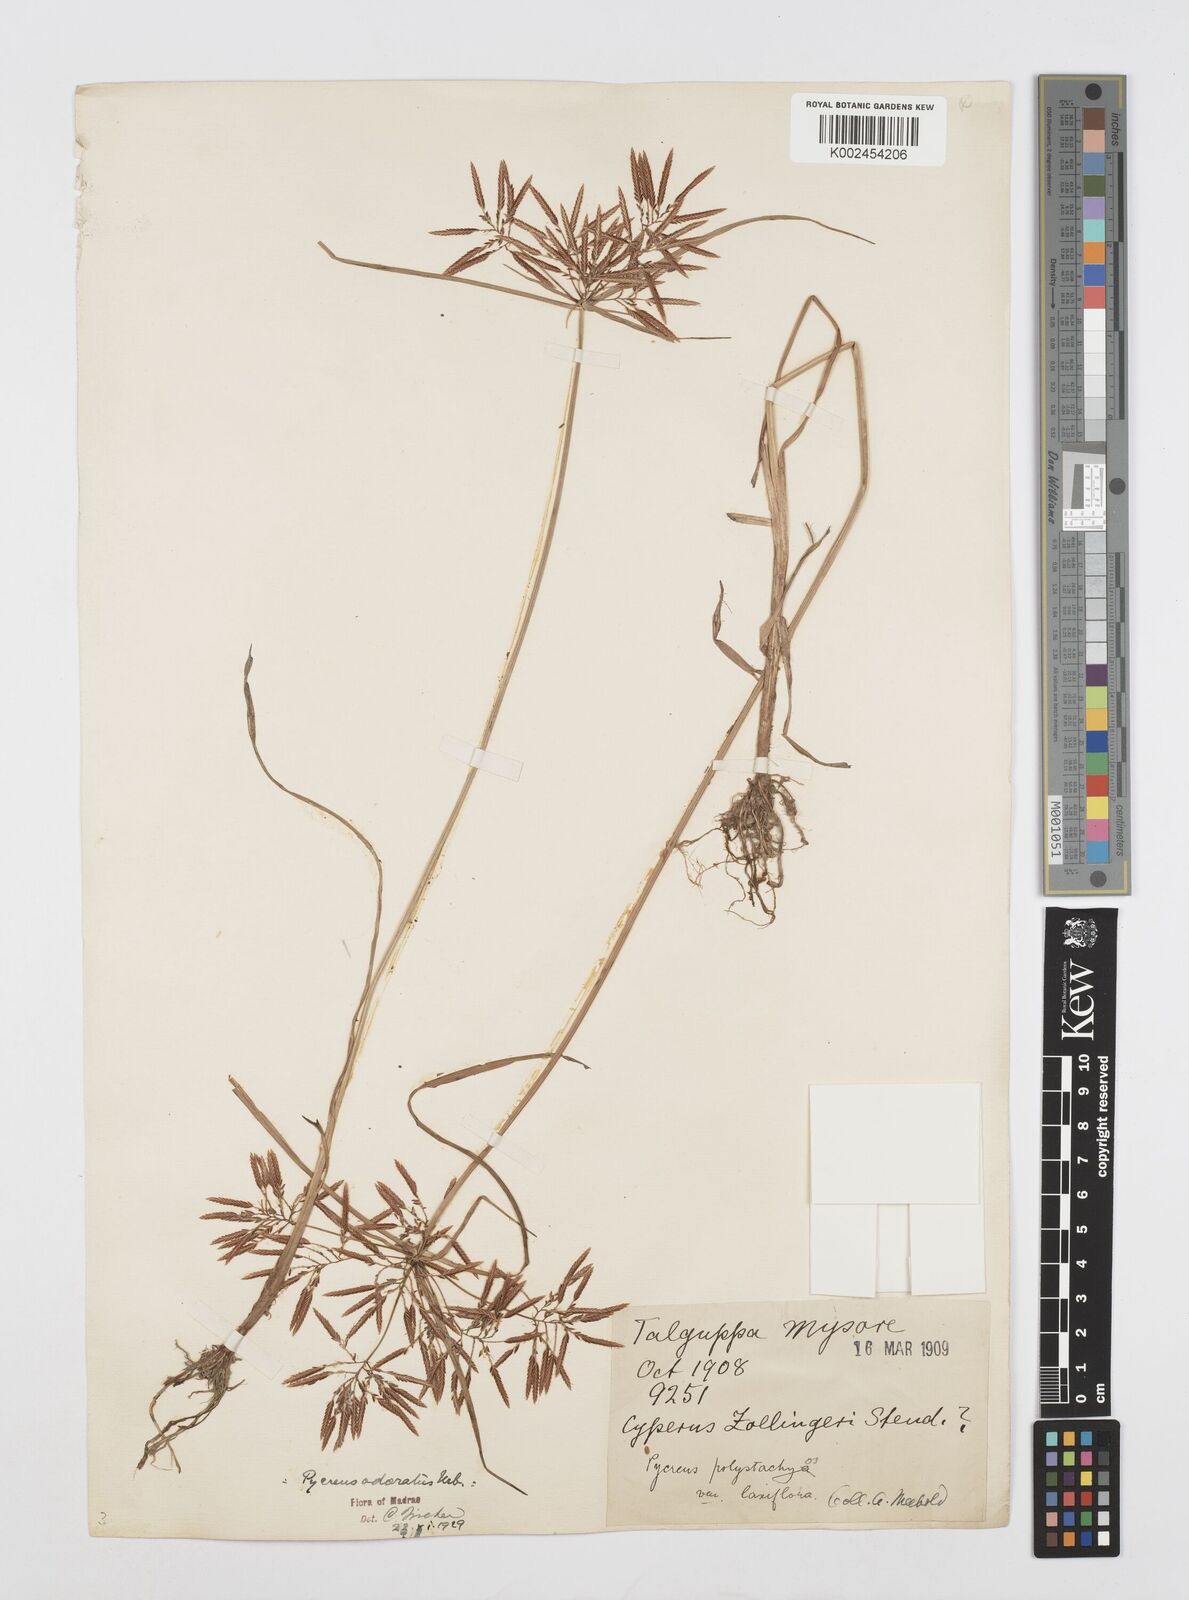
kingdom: Plantae
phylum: Tracheophyta
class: Liliopsida
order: Poales
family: Cyperaceae
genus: Cyperus
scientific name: Cyperus polystachyos
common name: Bunchy flat sedge
